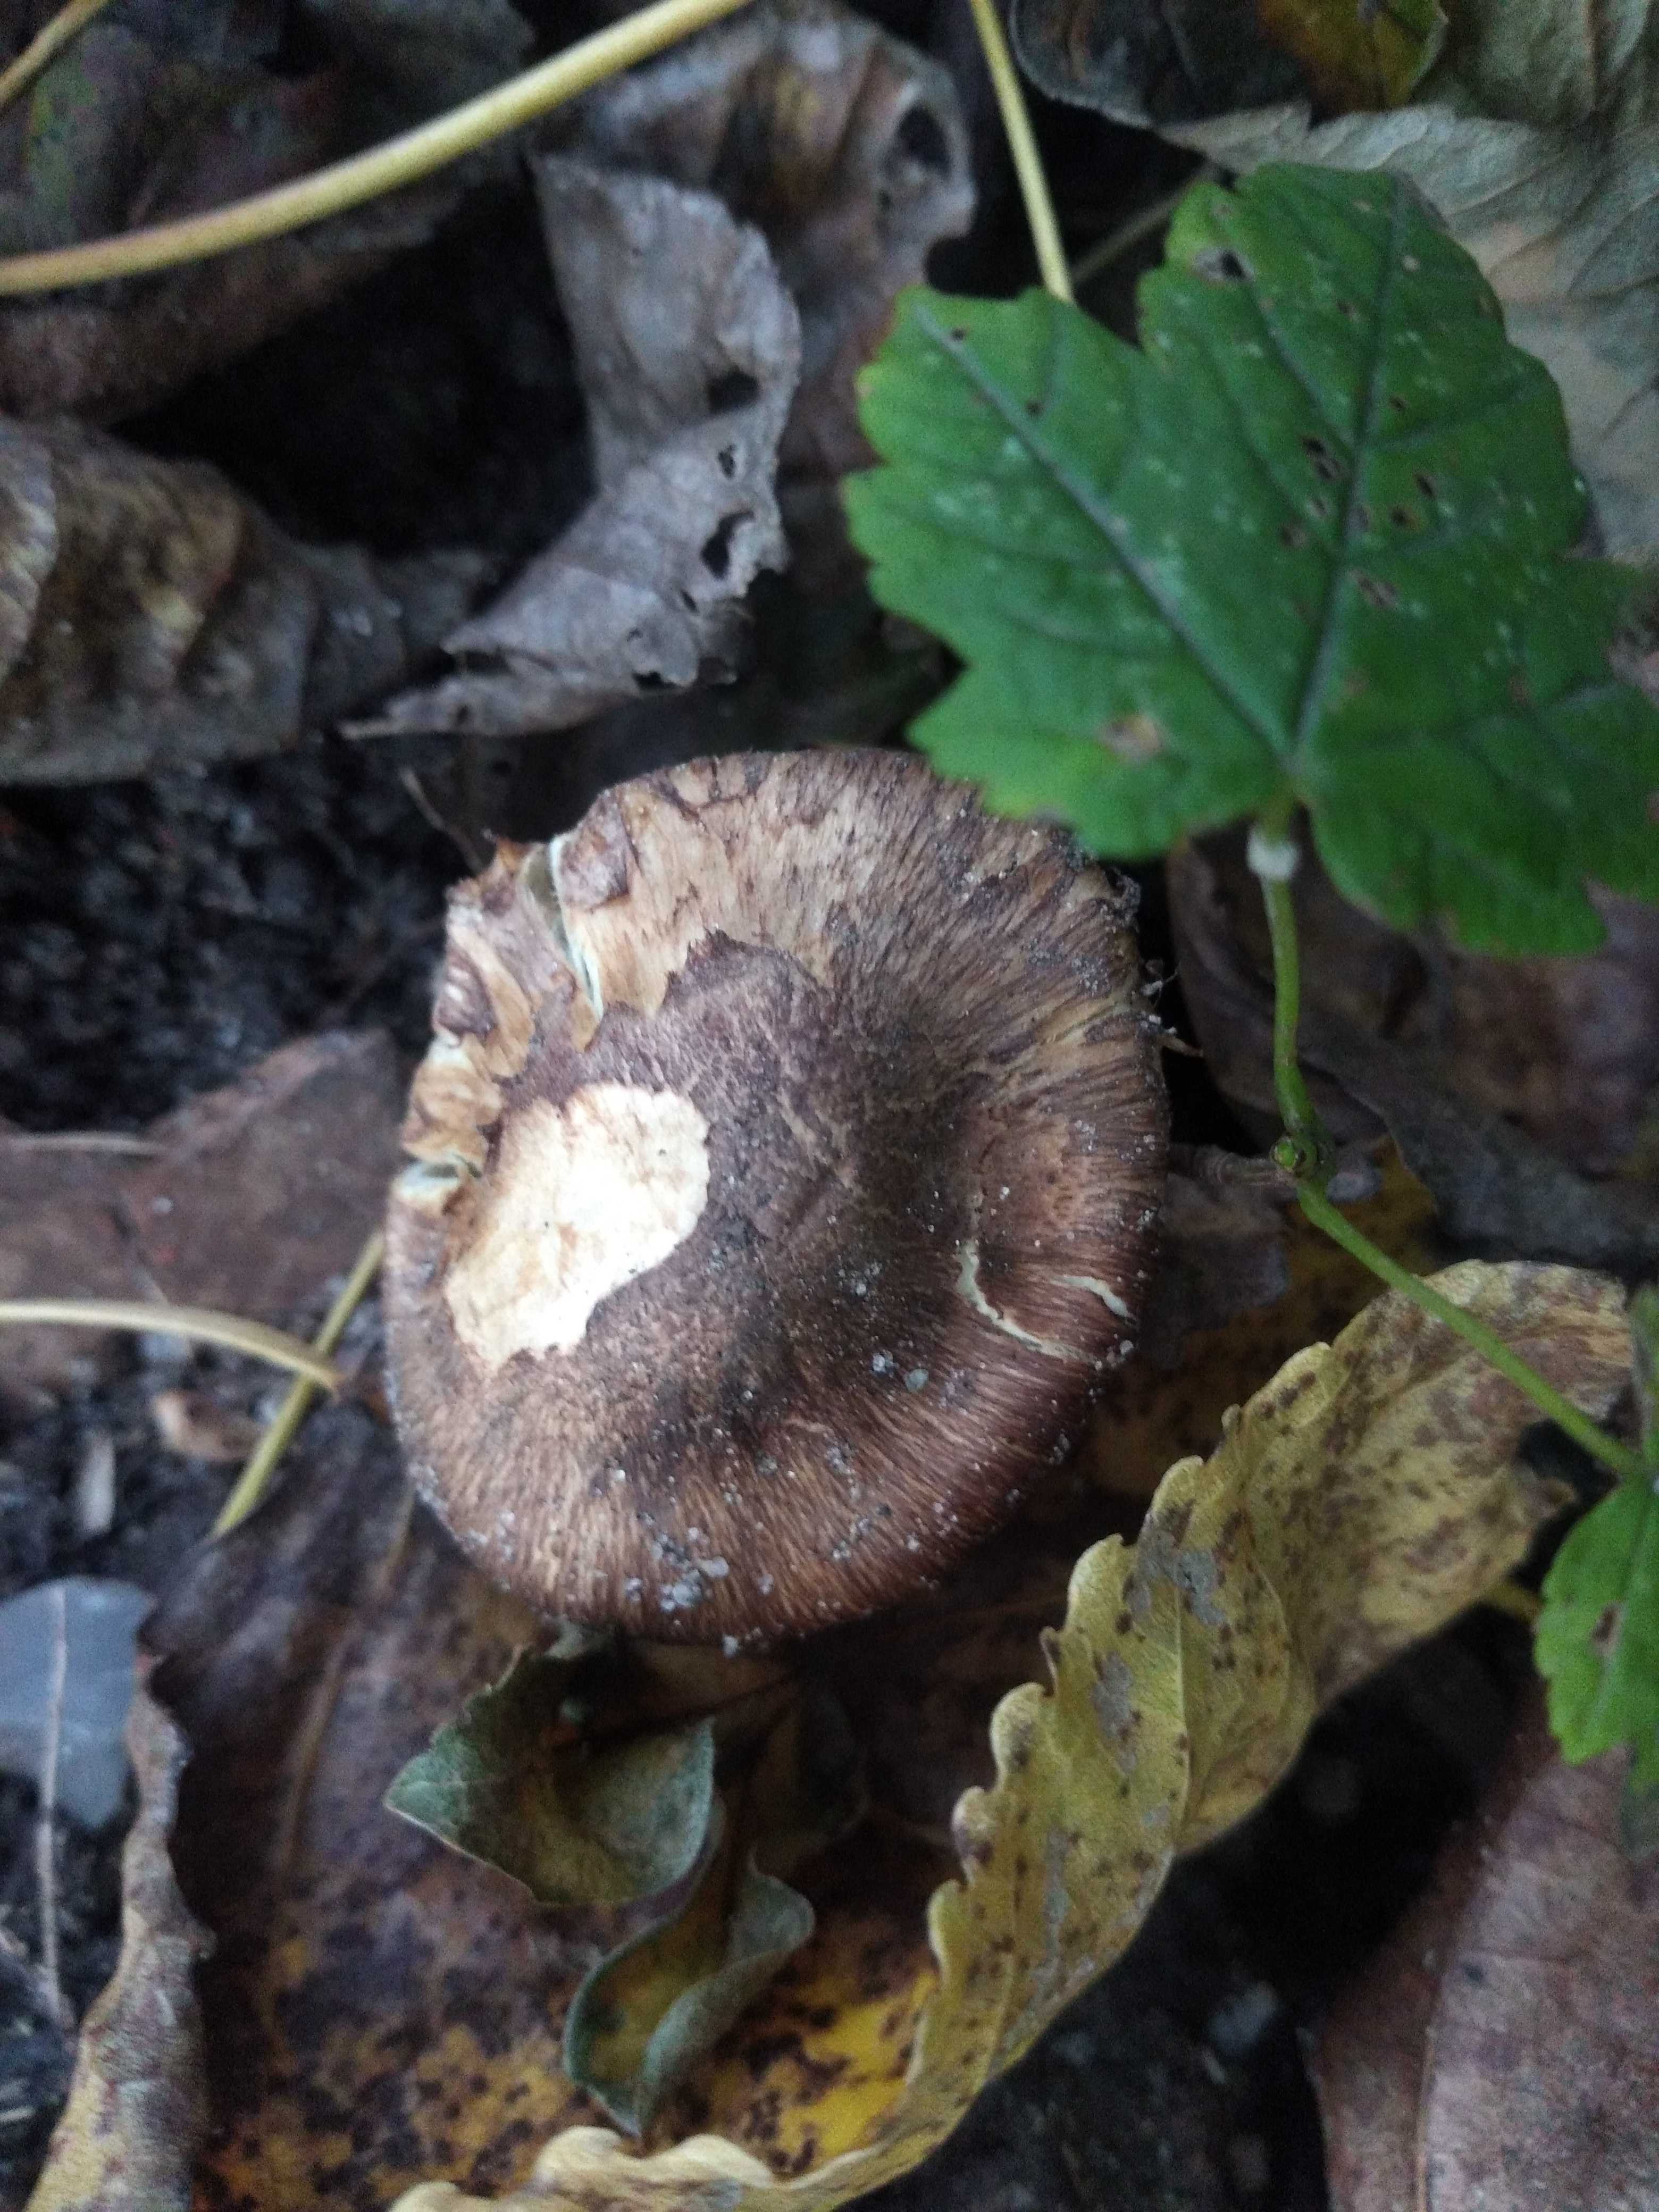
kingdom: Fungi
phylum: Basidiomycota
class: Agaricomycetes
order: Agaricales
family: Inocybaceae
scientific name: Inocybaceae
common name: trævlhatfamilien
